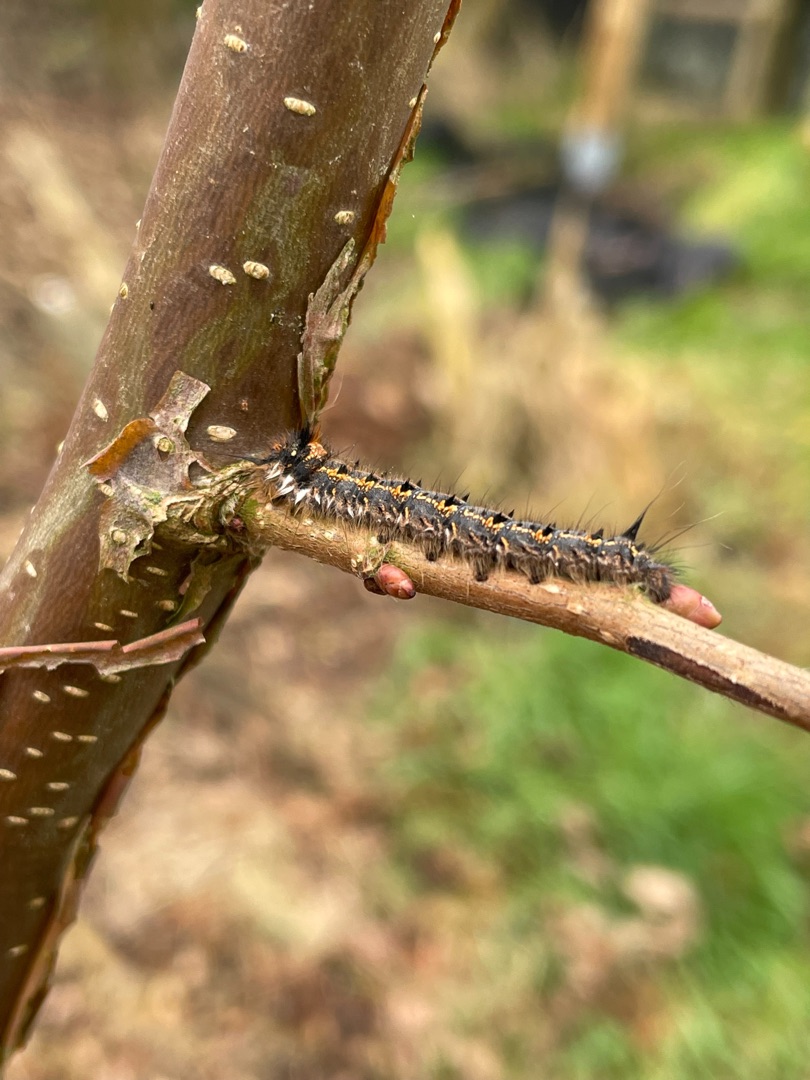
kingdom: Animalia
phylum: Arthropoda
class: Insecta
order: Lepidoptera
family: Lasiocampidae
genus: Euthrix
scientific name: Euthrix potatoria
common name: Græsspinder
